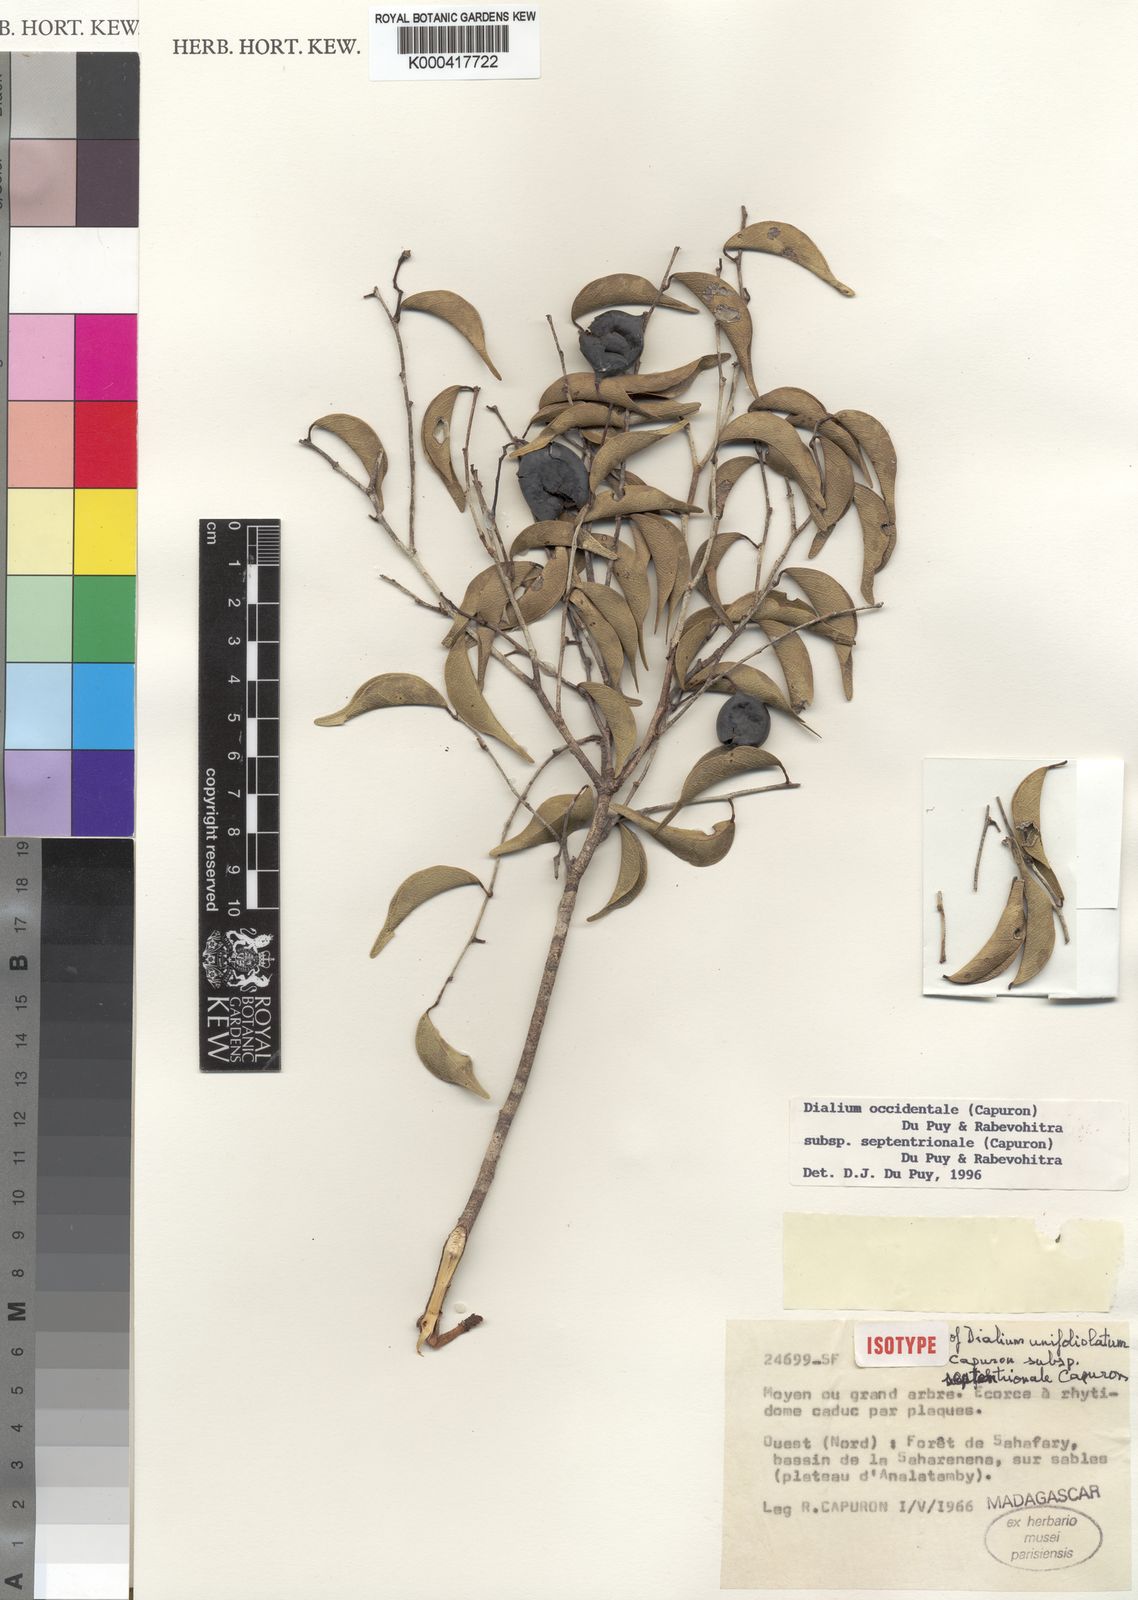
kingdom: Plantae
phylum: Tracheophyta
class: Magnoliopsida
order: Fabales
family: Fabaceae
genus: Dialium
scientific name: Dialium occidentale
